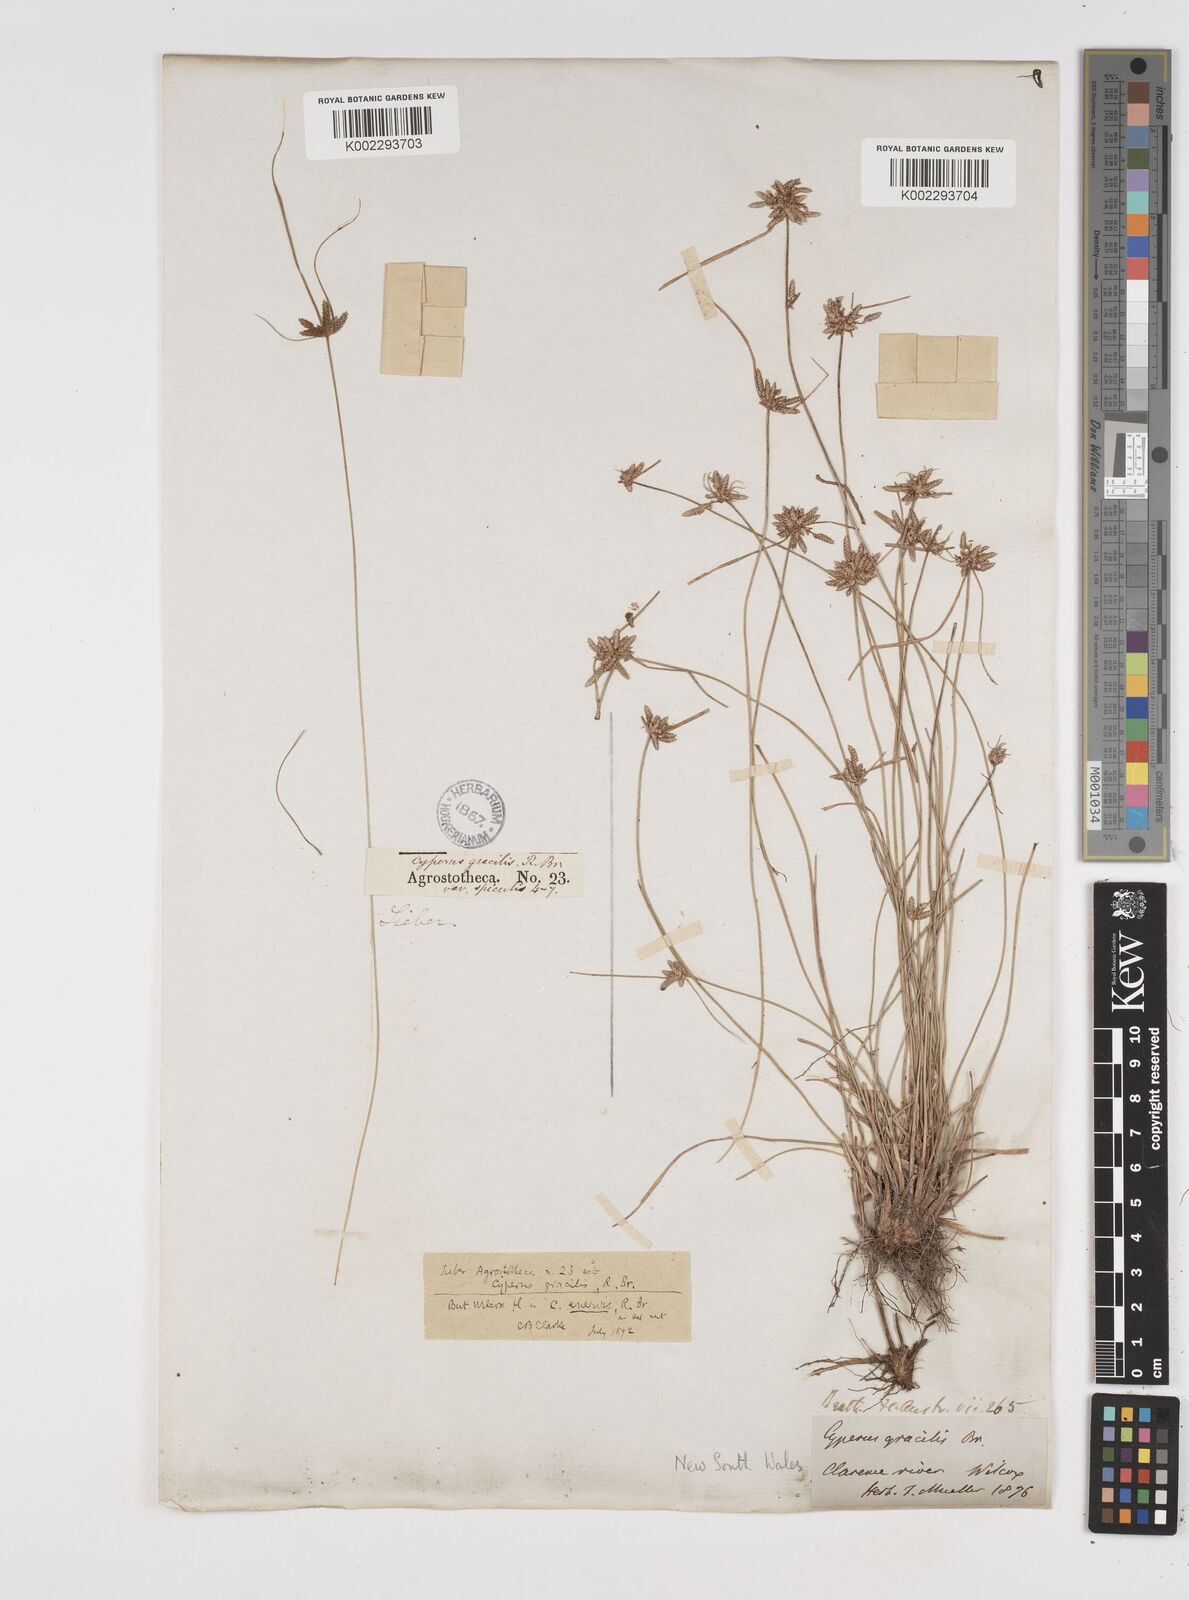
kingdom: Plantae
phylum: Tracheophyta
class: Liliopsida
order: Poales
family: Cyperaceae
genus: Cyperus
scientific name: Cyperus enervis
